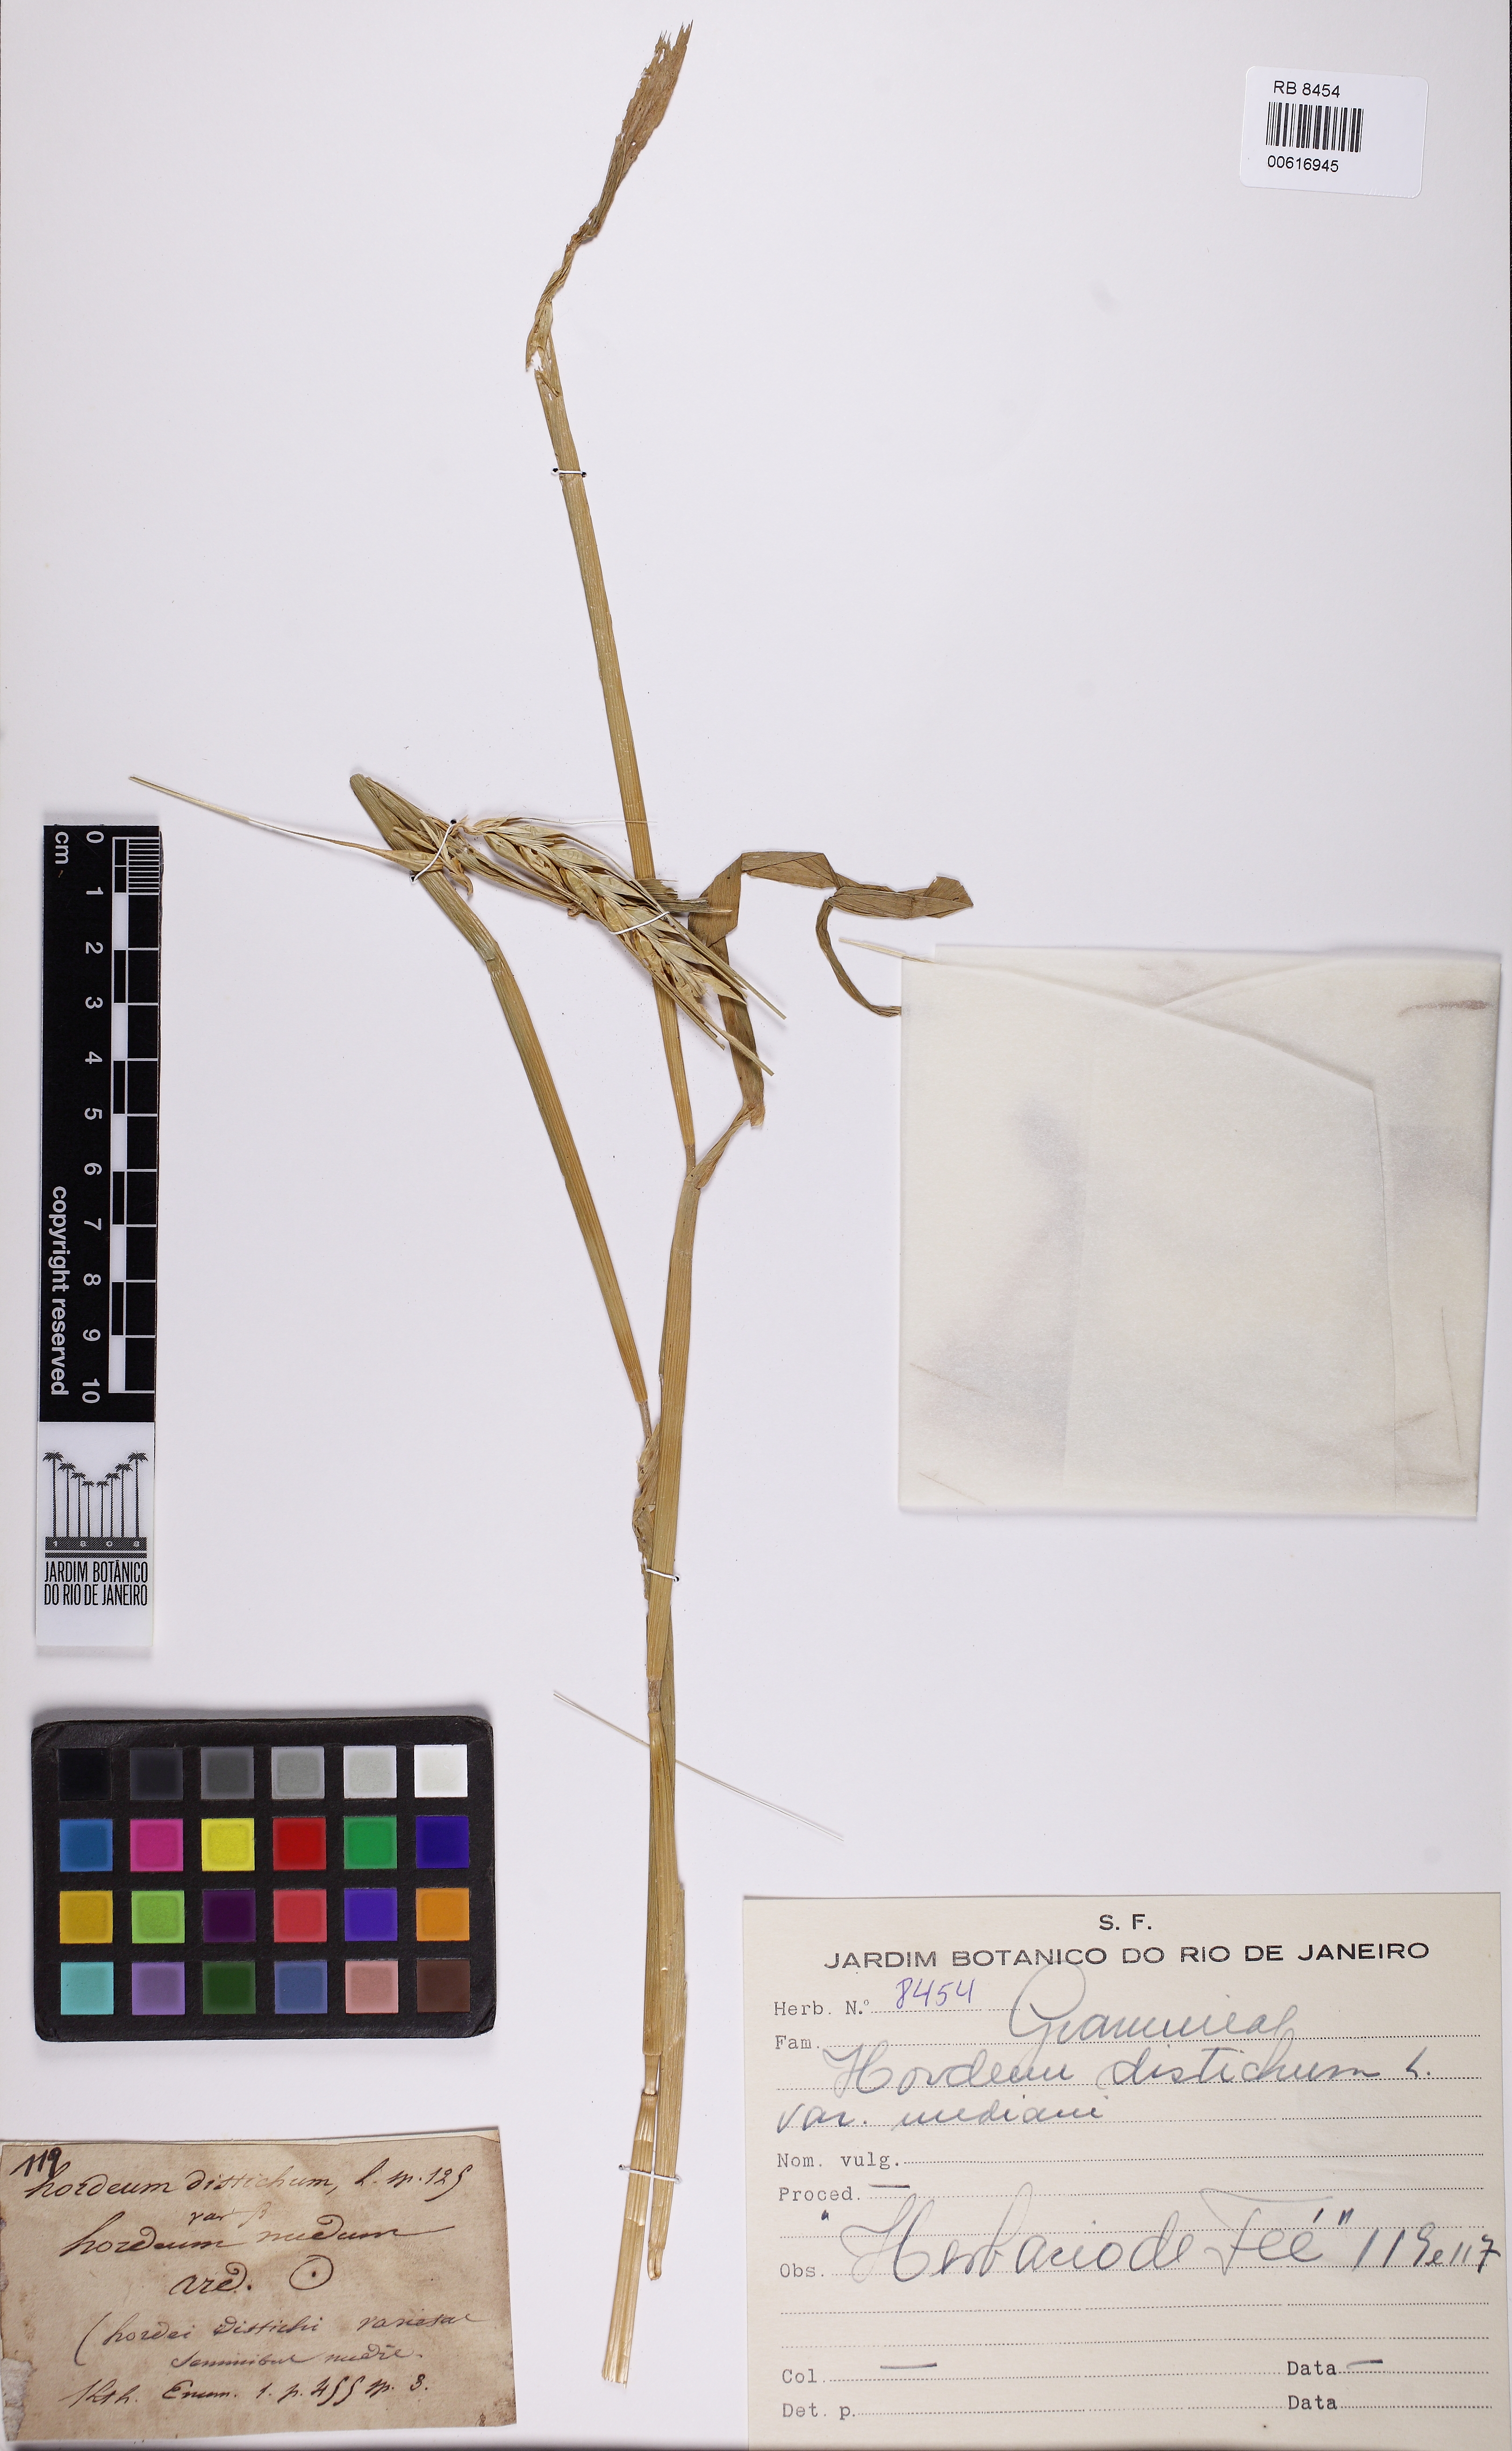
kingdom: Plantae
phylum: Tracheophyta
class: Liliopsida
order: Poales
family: Poaceae
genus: Hordeum
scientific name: Hordeum distichon
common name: Two-rowed barley
